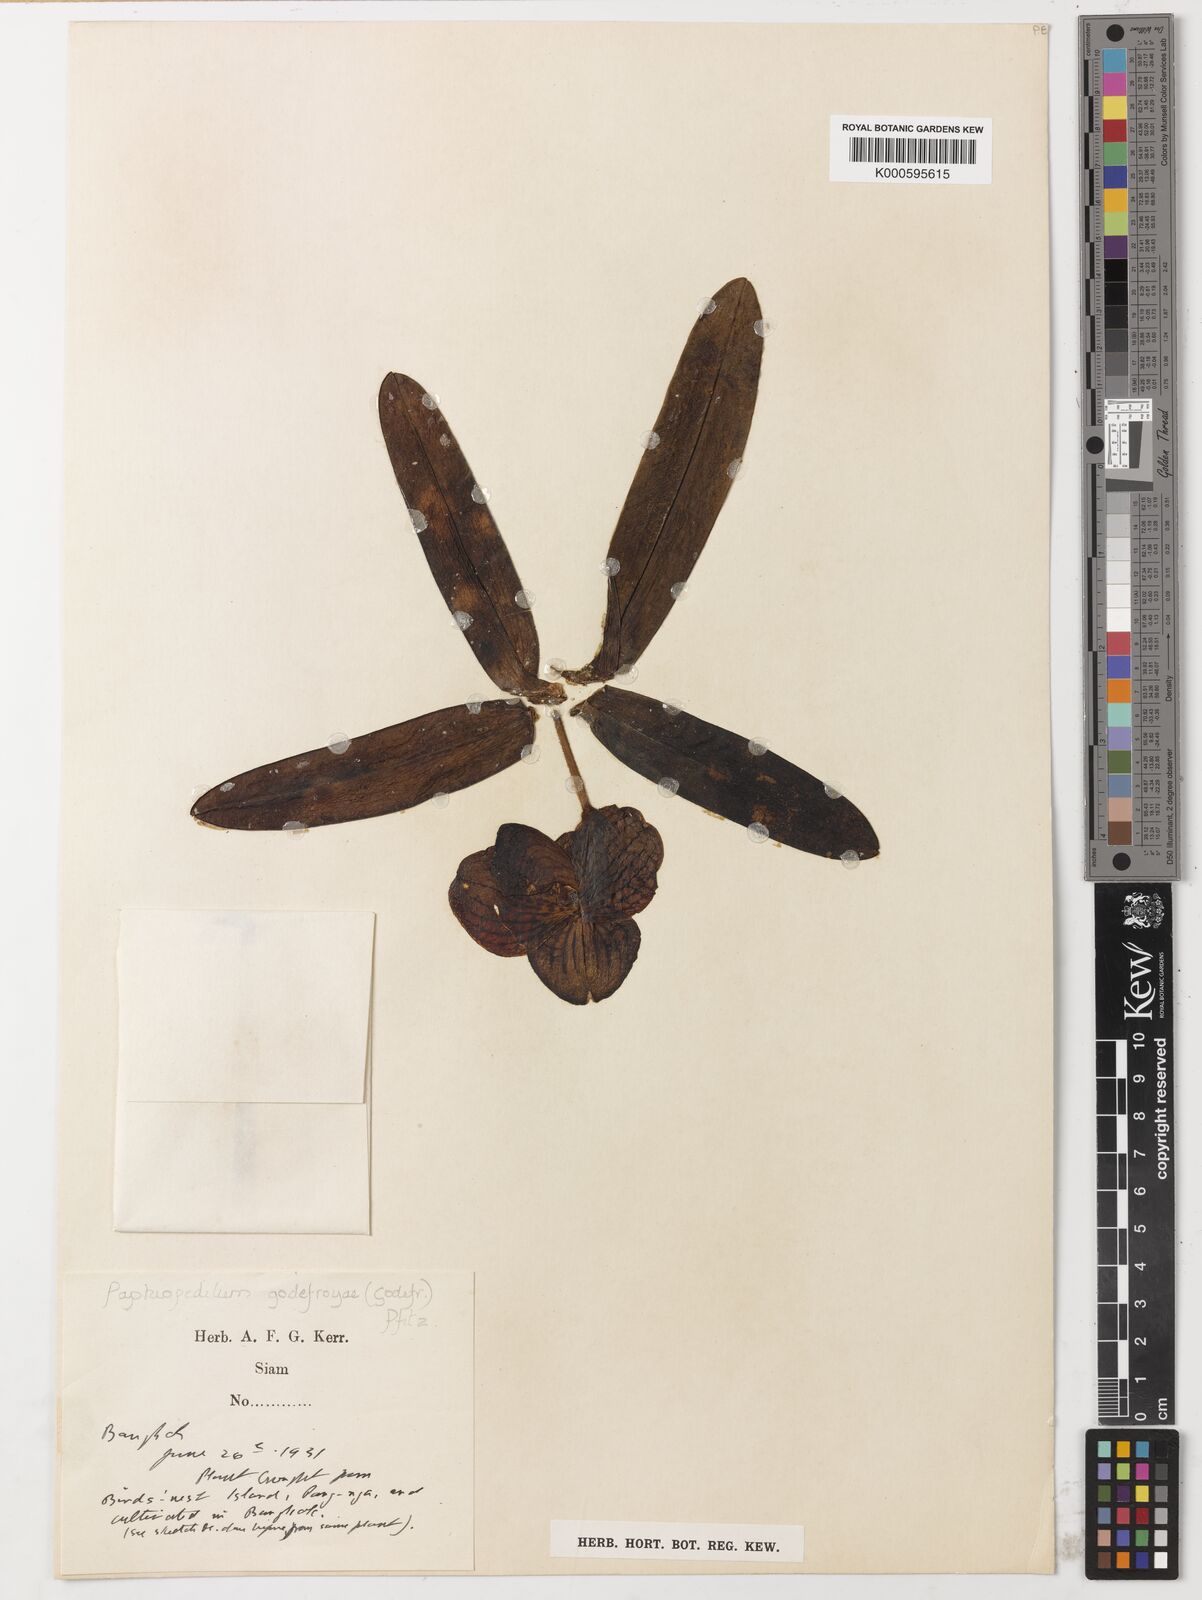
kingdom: Plantae
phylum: Tracheophyta
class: Liliopsida
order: Asparagales
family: Orchidaceae
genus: Paphiopedilum
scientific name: Paphiopedilum
